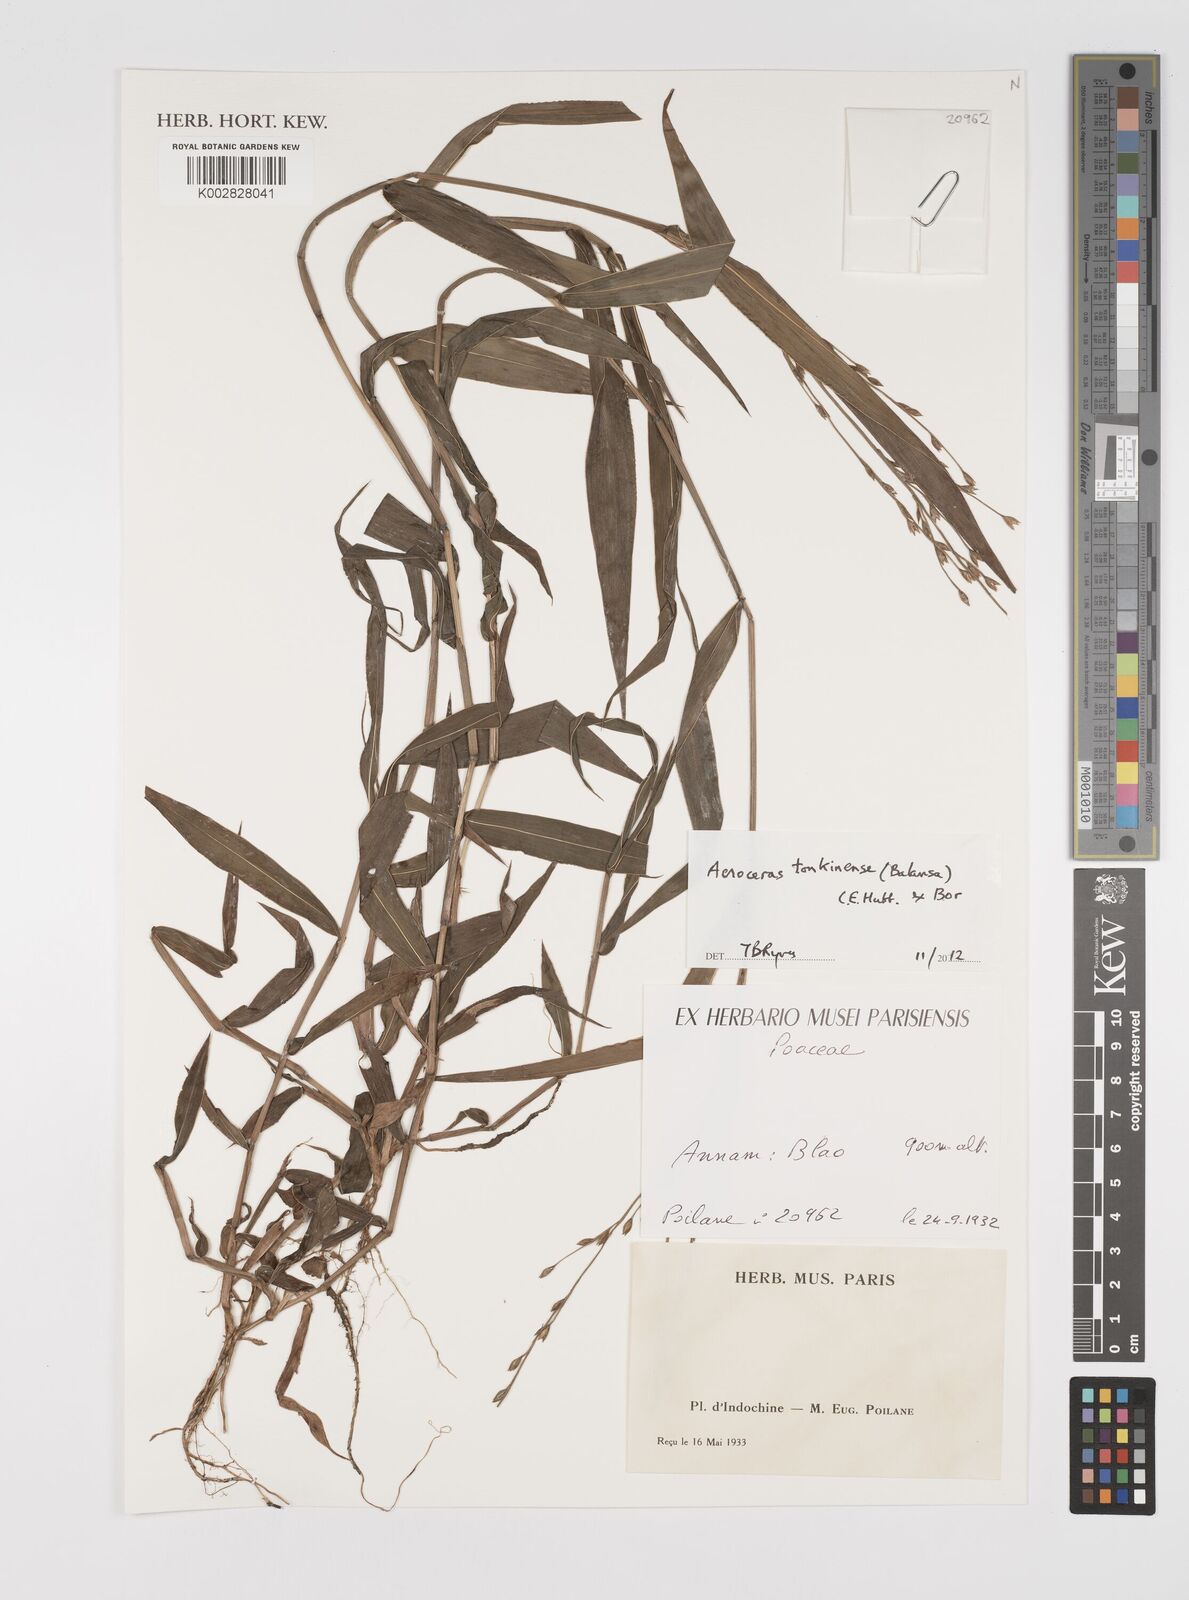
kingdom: Plantae
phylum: Tracheophyta
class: Liliopsida
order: Poales
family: Poaceae
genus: Acroceras
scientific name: Acroceras tonkinense
